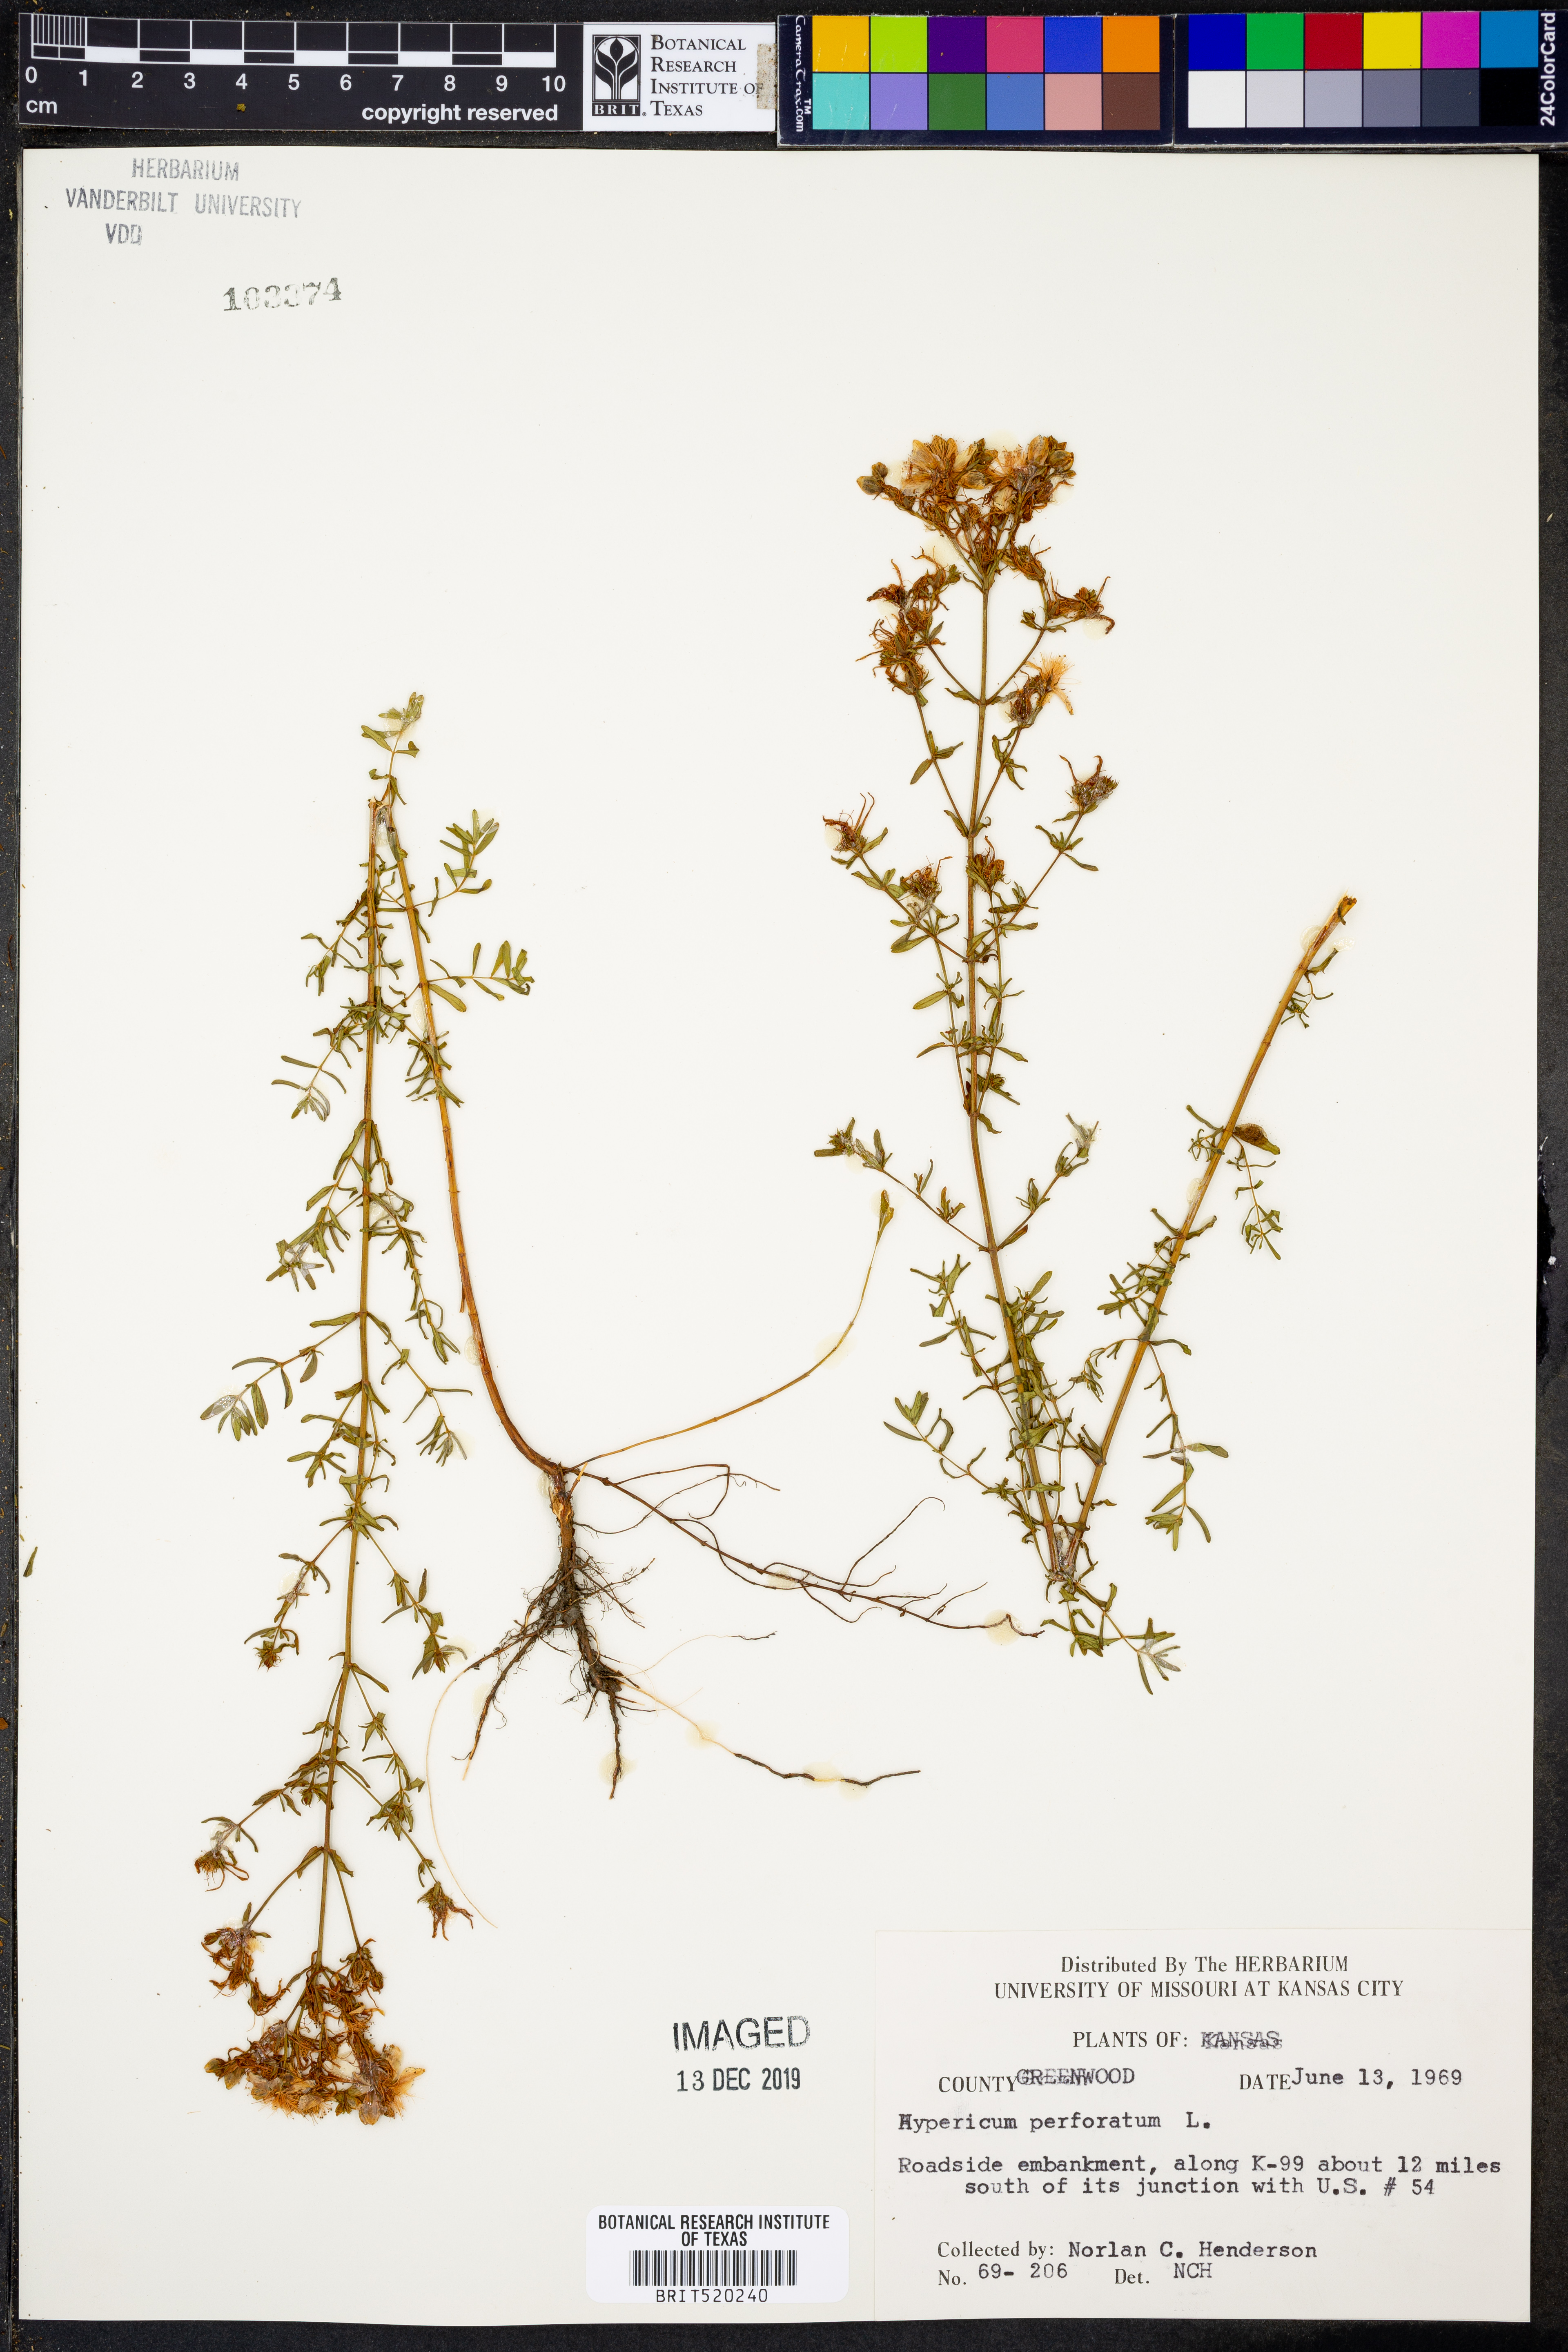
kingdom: Plantae
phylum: Tracheophyta
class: Magnoliopsida
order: Malpighiales
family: Hypericaceae
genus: Hypericum
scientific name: Hypericum perforatum
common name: Common st. johnswort
